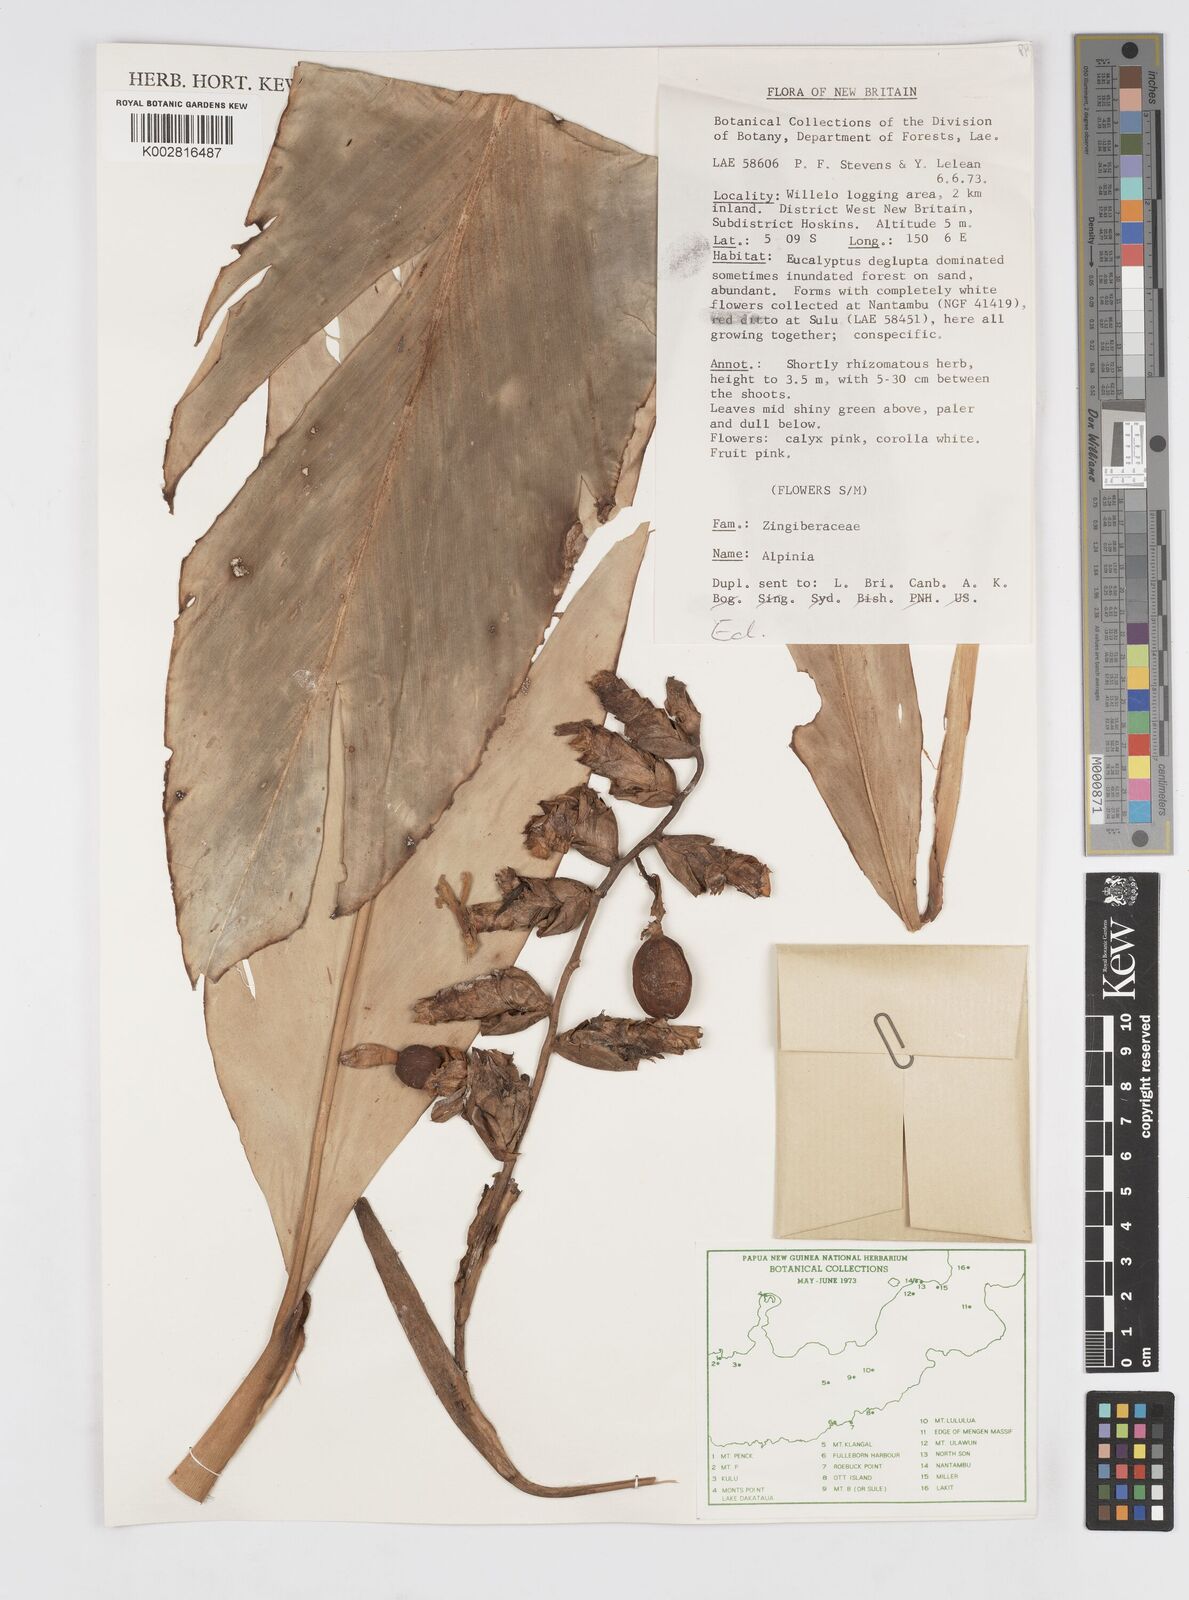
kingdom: Plantae
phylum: Tracheophyta
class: Liliopsida
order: Zingiberales
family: Zingiberaceae
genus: Alpinia
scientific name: Alpinia
